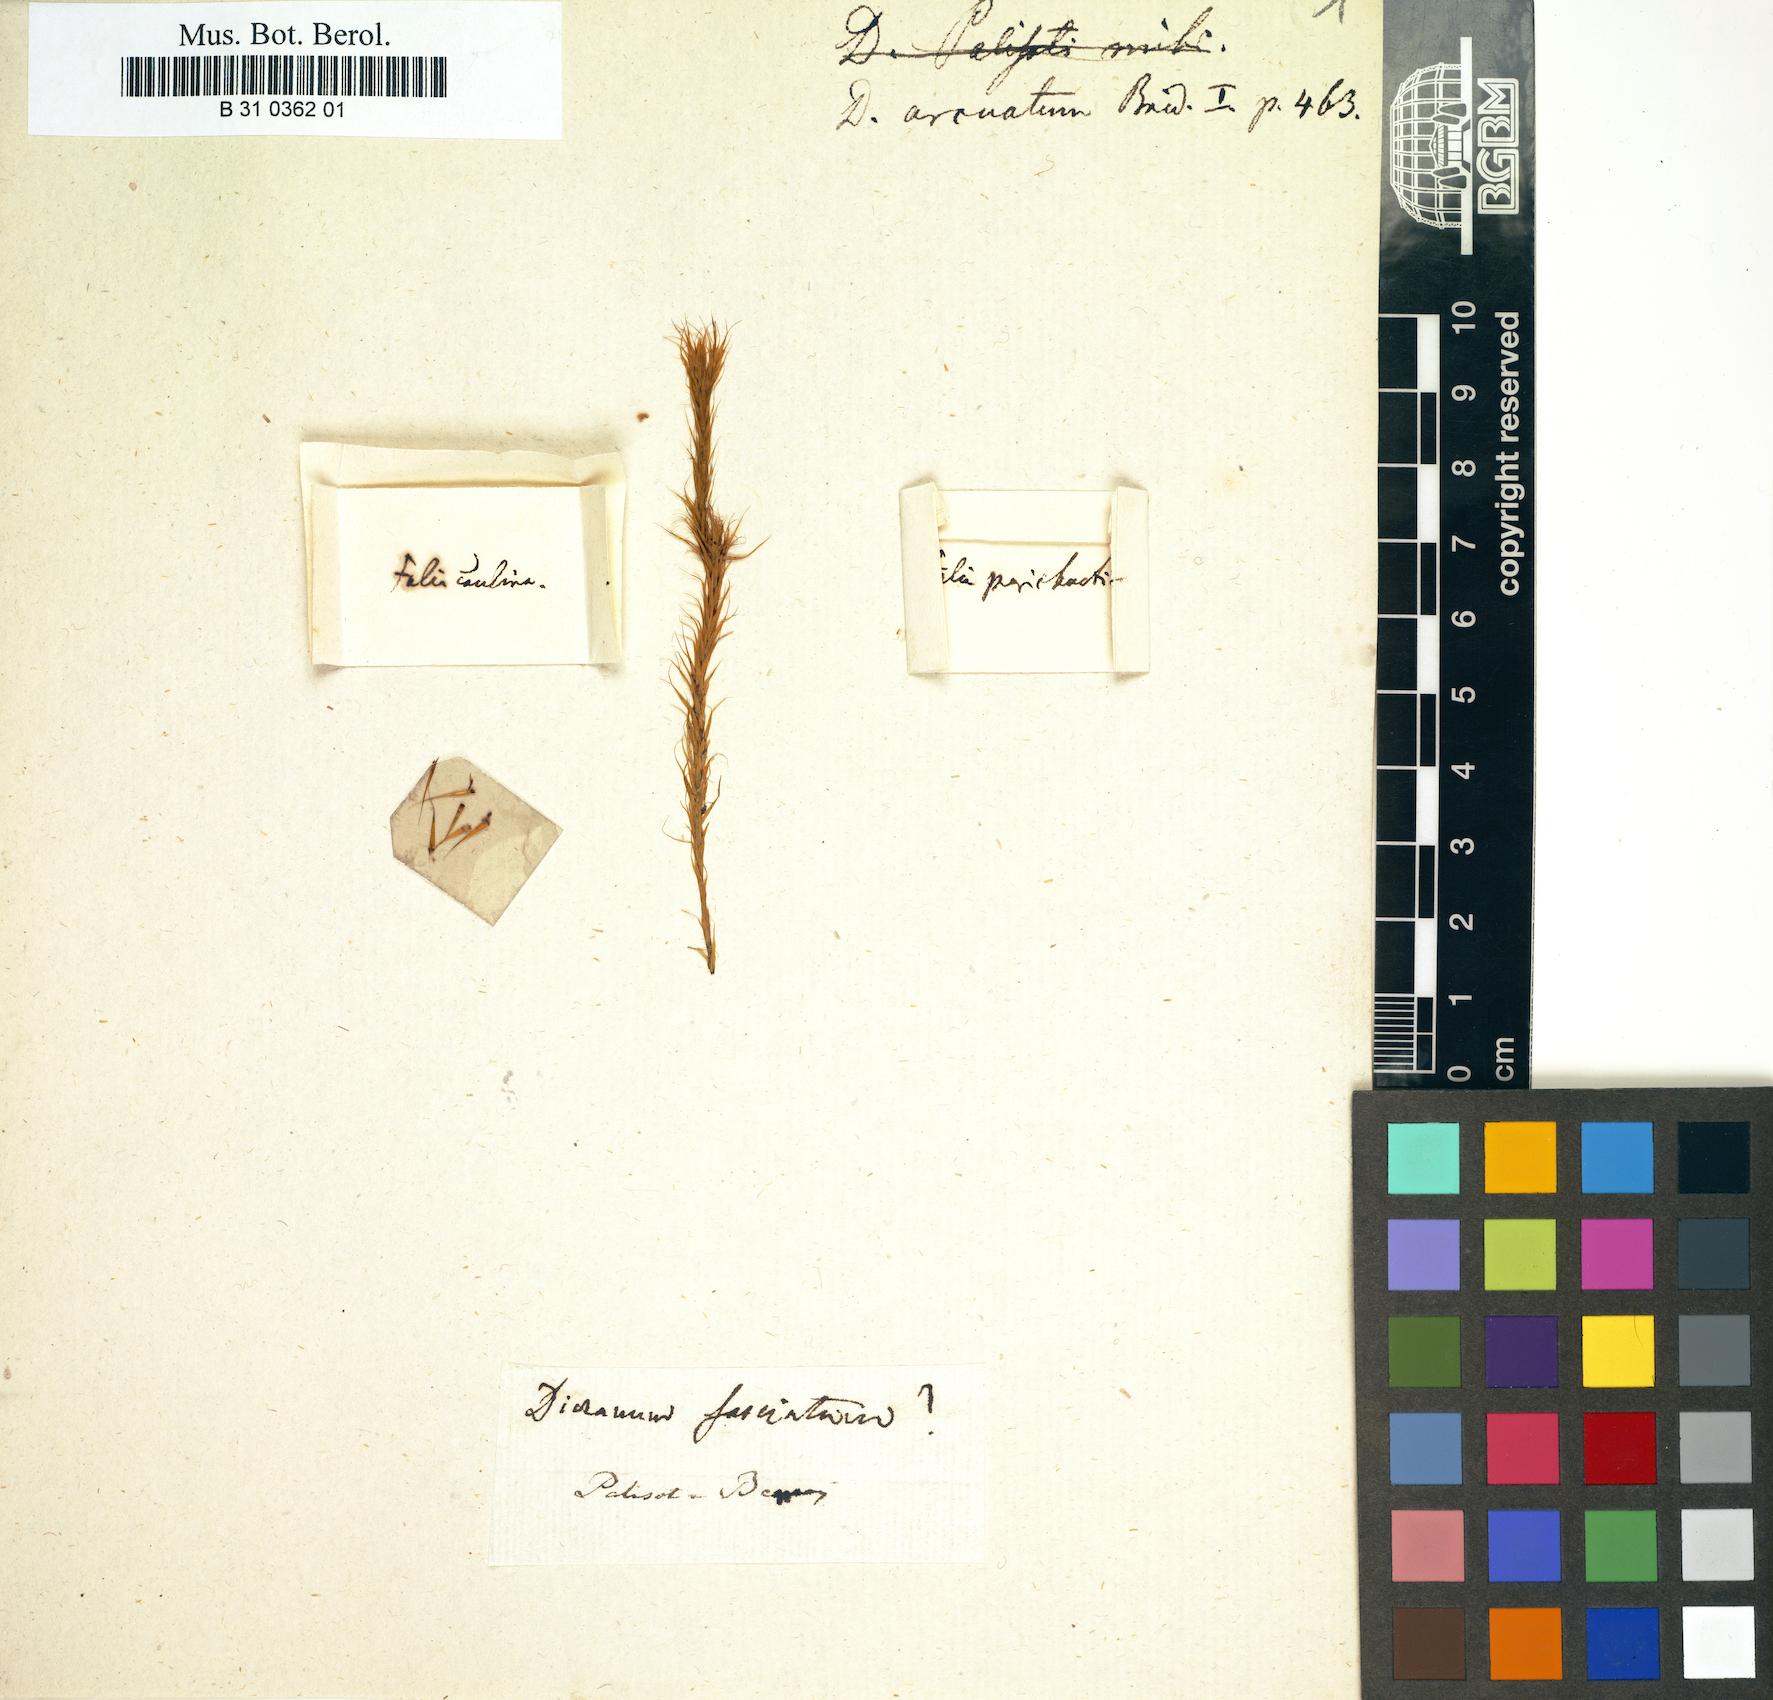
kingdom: Plantae
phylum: Bryophyta
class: Bryopsida
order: Dicranales
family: Dicranaceae
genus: Dicranoloma
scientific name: Dicranoloma fasciatum
